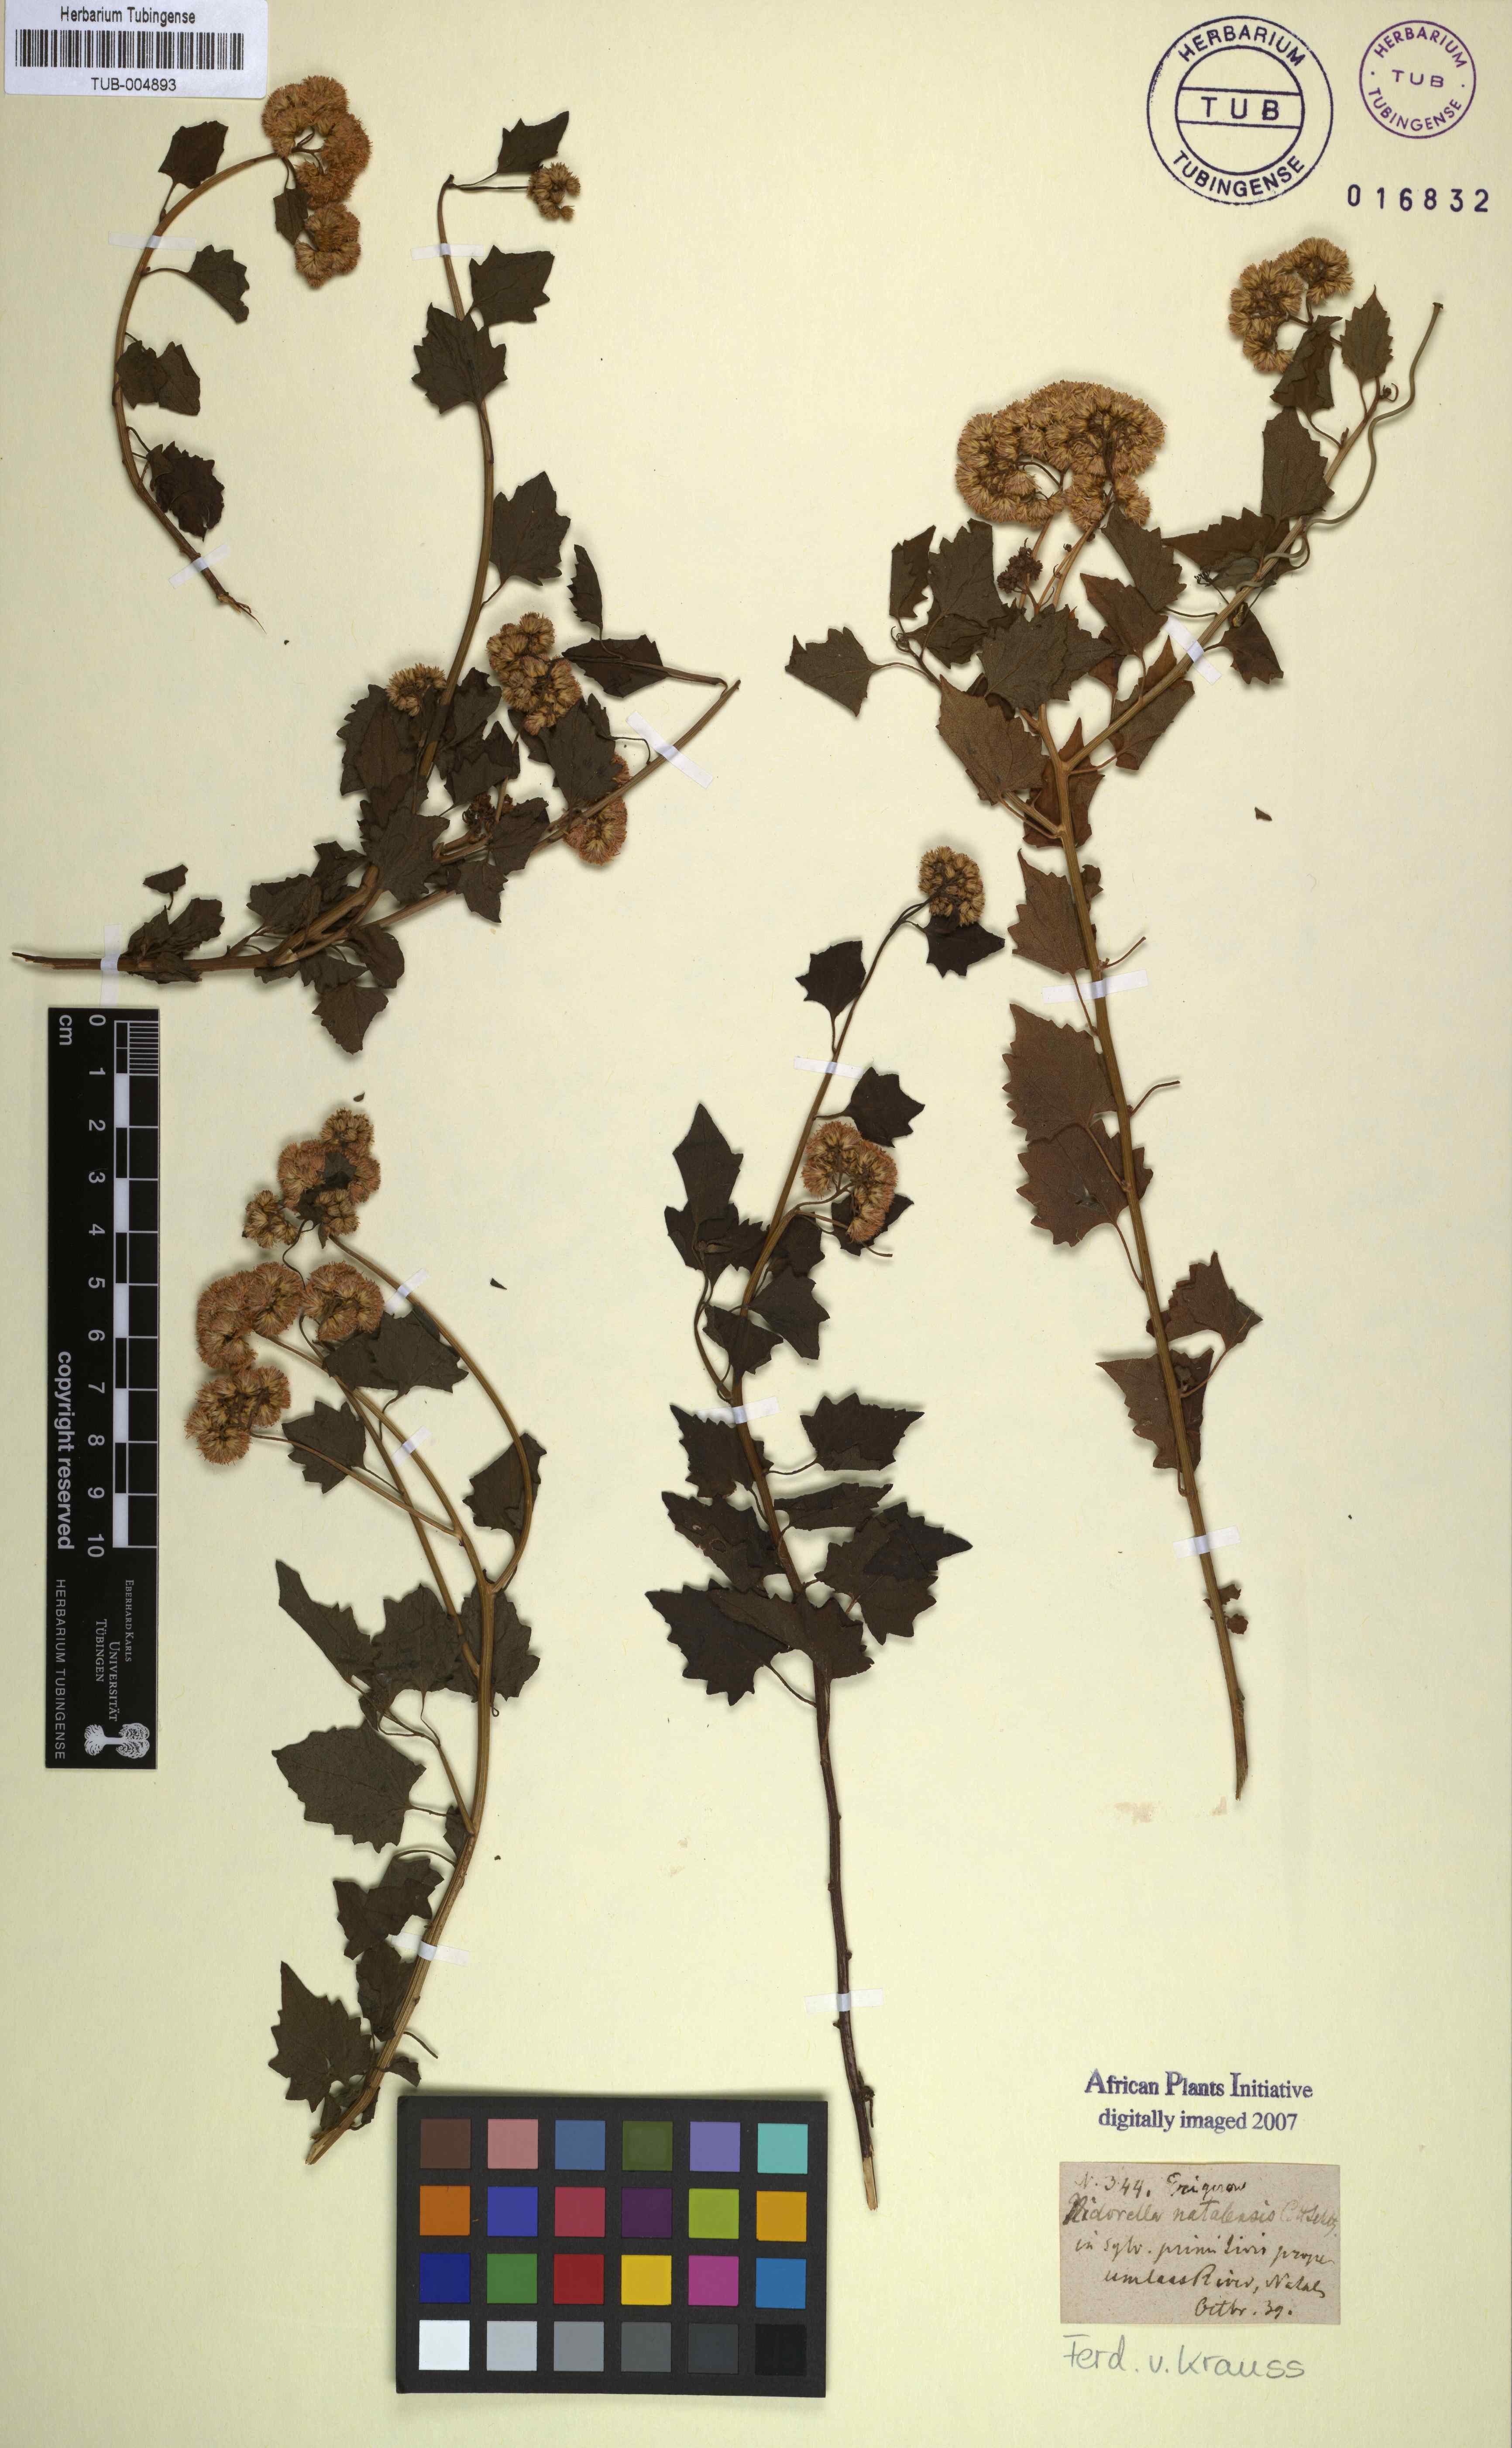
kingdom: Plantae
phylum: Tracheophyta
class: Magnoliopsida
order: Asterales
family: Asteraceae
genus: Microglossa
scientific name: Microglossa mespilifolia
